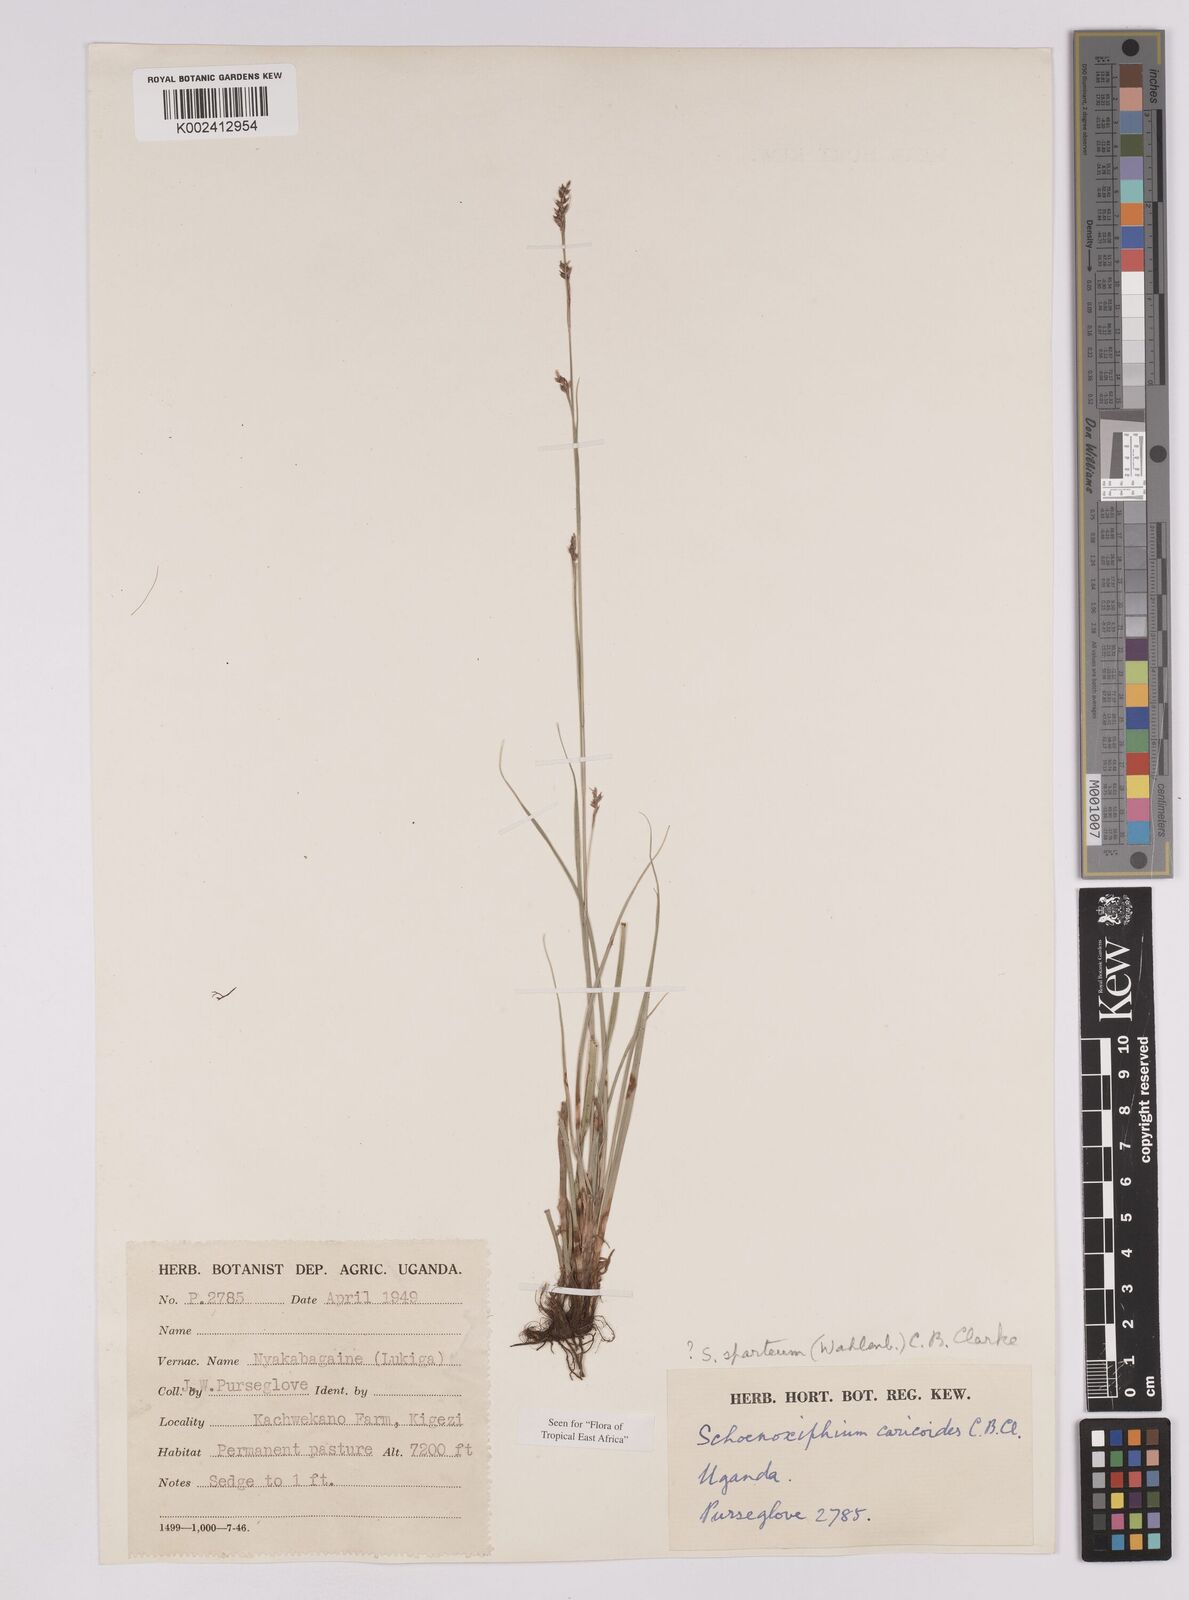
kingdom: Plantae
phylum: Tracheophyta
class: Liliopsida
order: Poales
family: Cyperaceae
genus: Carex
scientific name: Carex schimperiana
